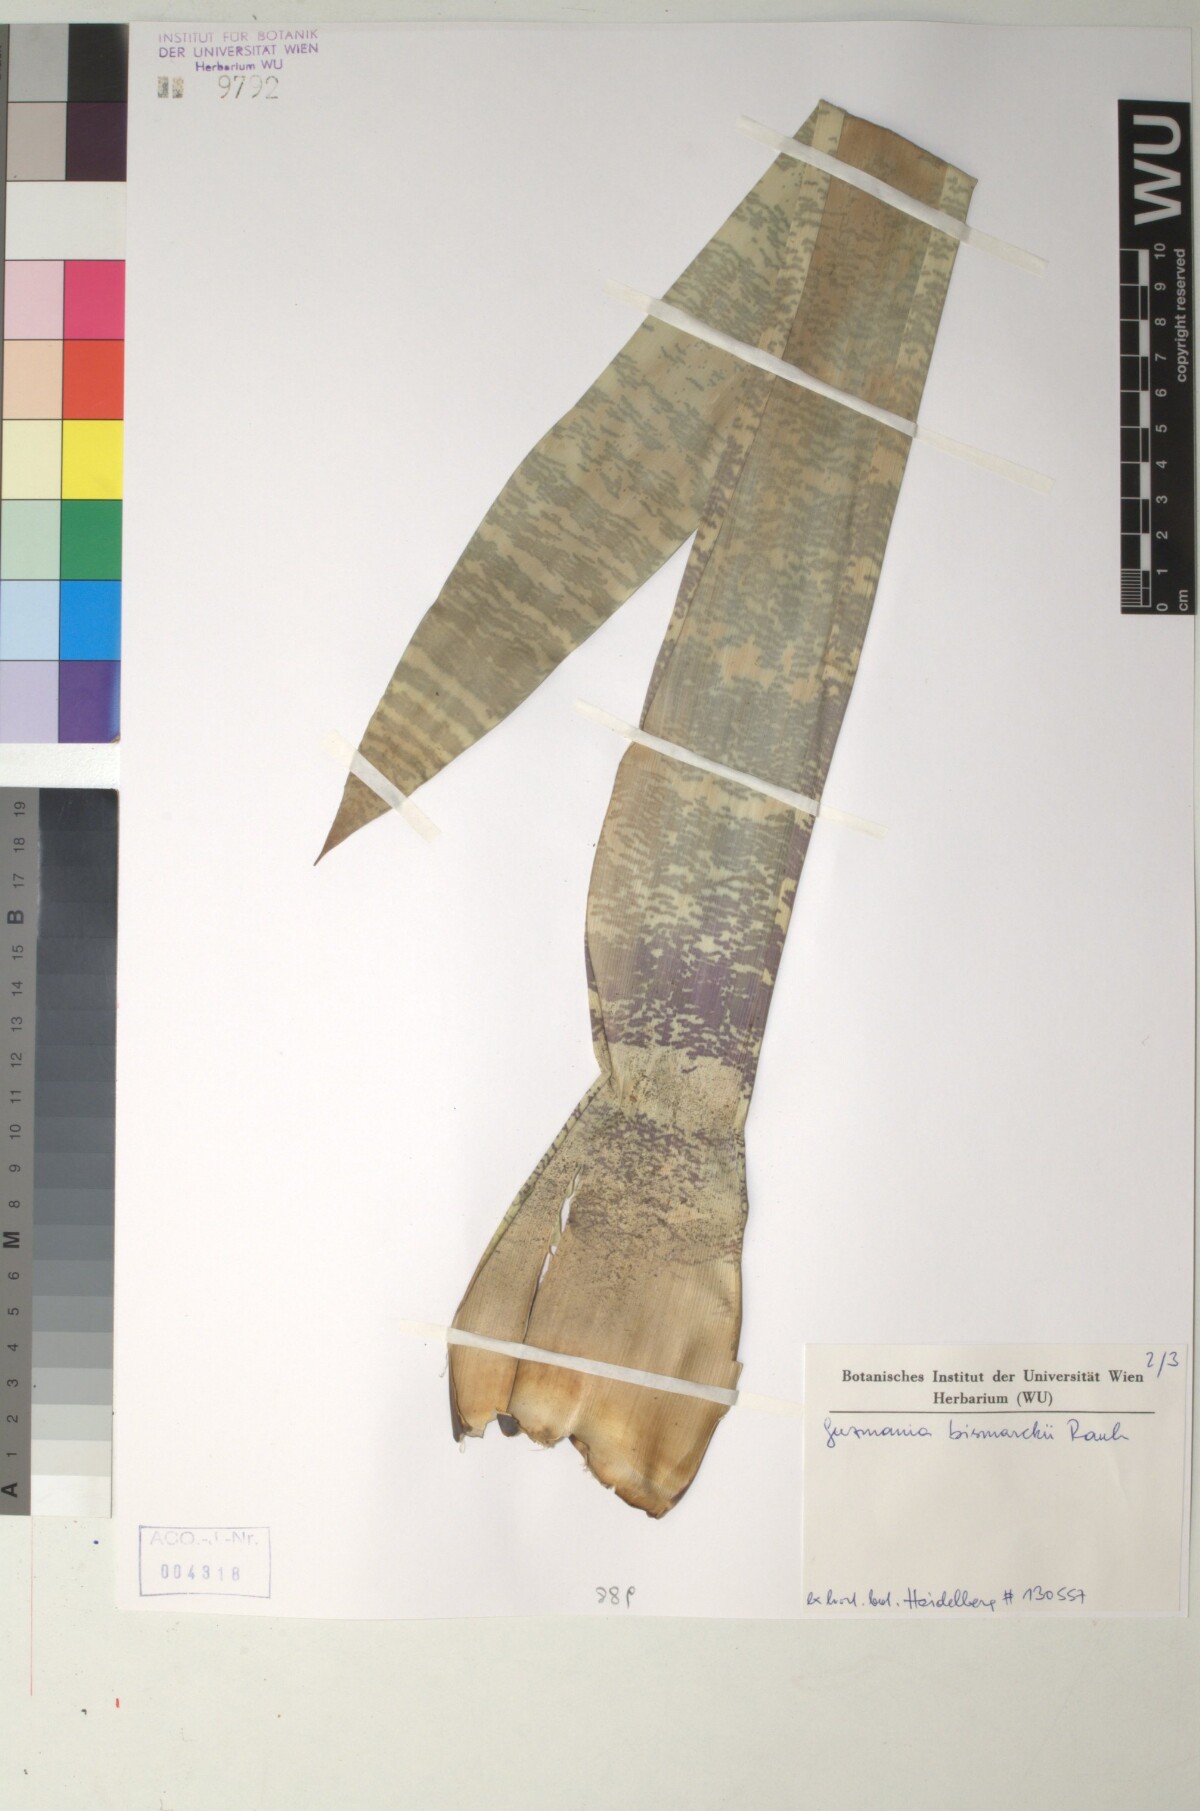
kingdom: Plantae
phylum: Tracheophyta
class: Liliopsida
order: Poales
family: Bromeliaceae
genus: Guzmania
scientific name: Guzmania lindenii
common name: Guzmania
